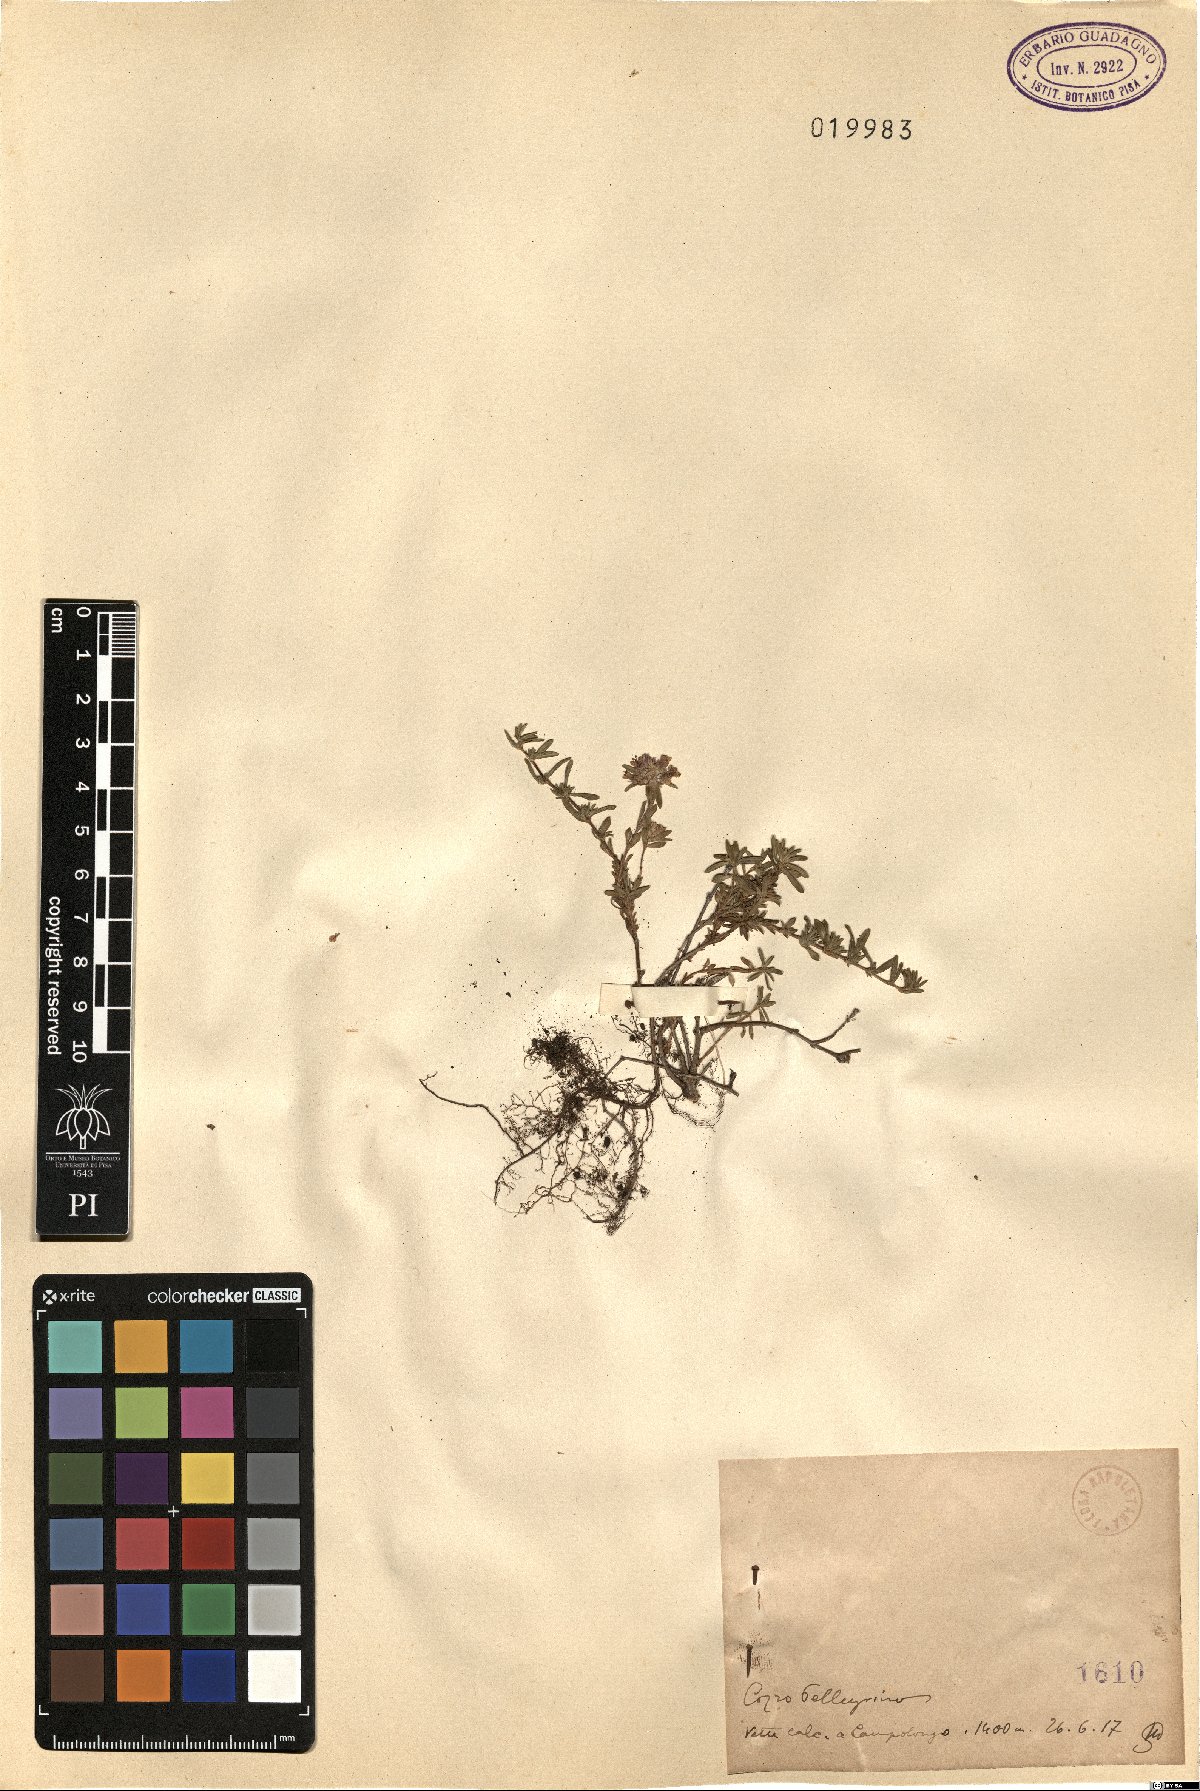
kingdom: Plantae
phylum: Tracheophyta
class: Magnoliopsida
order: Asterales
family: Asteraceae
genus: Hieracium
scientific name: Hieracium
